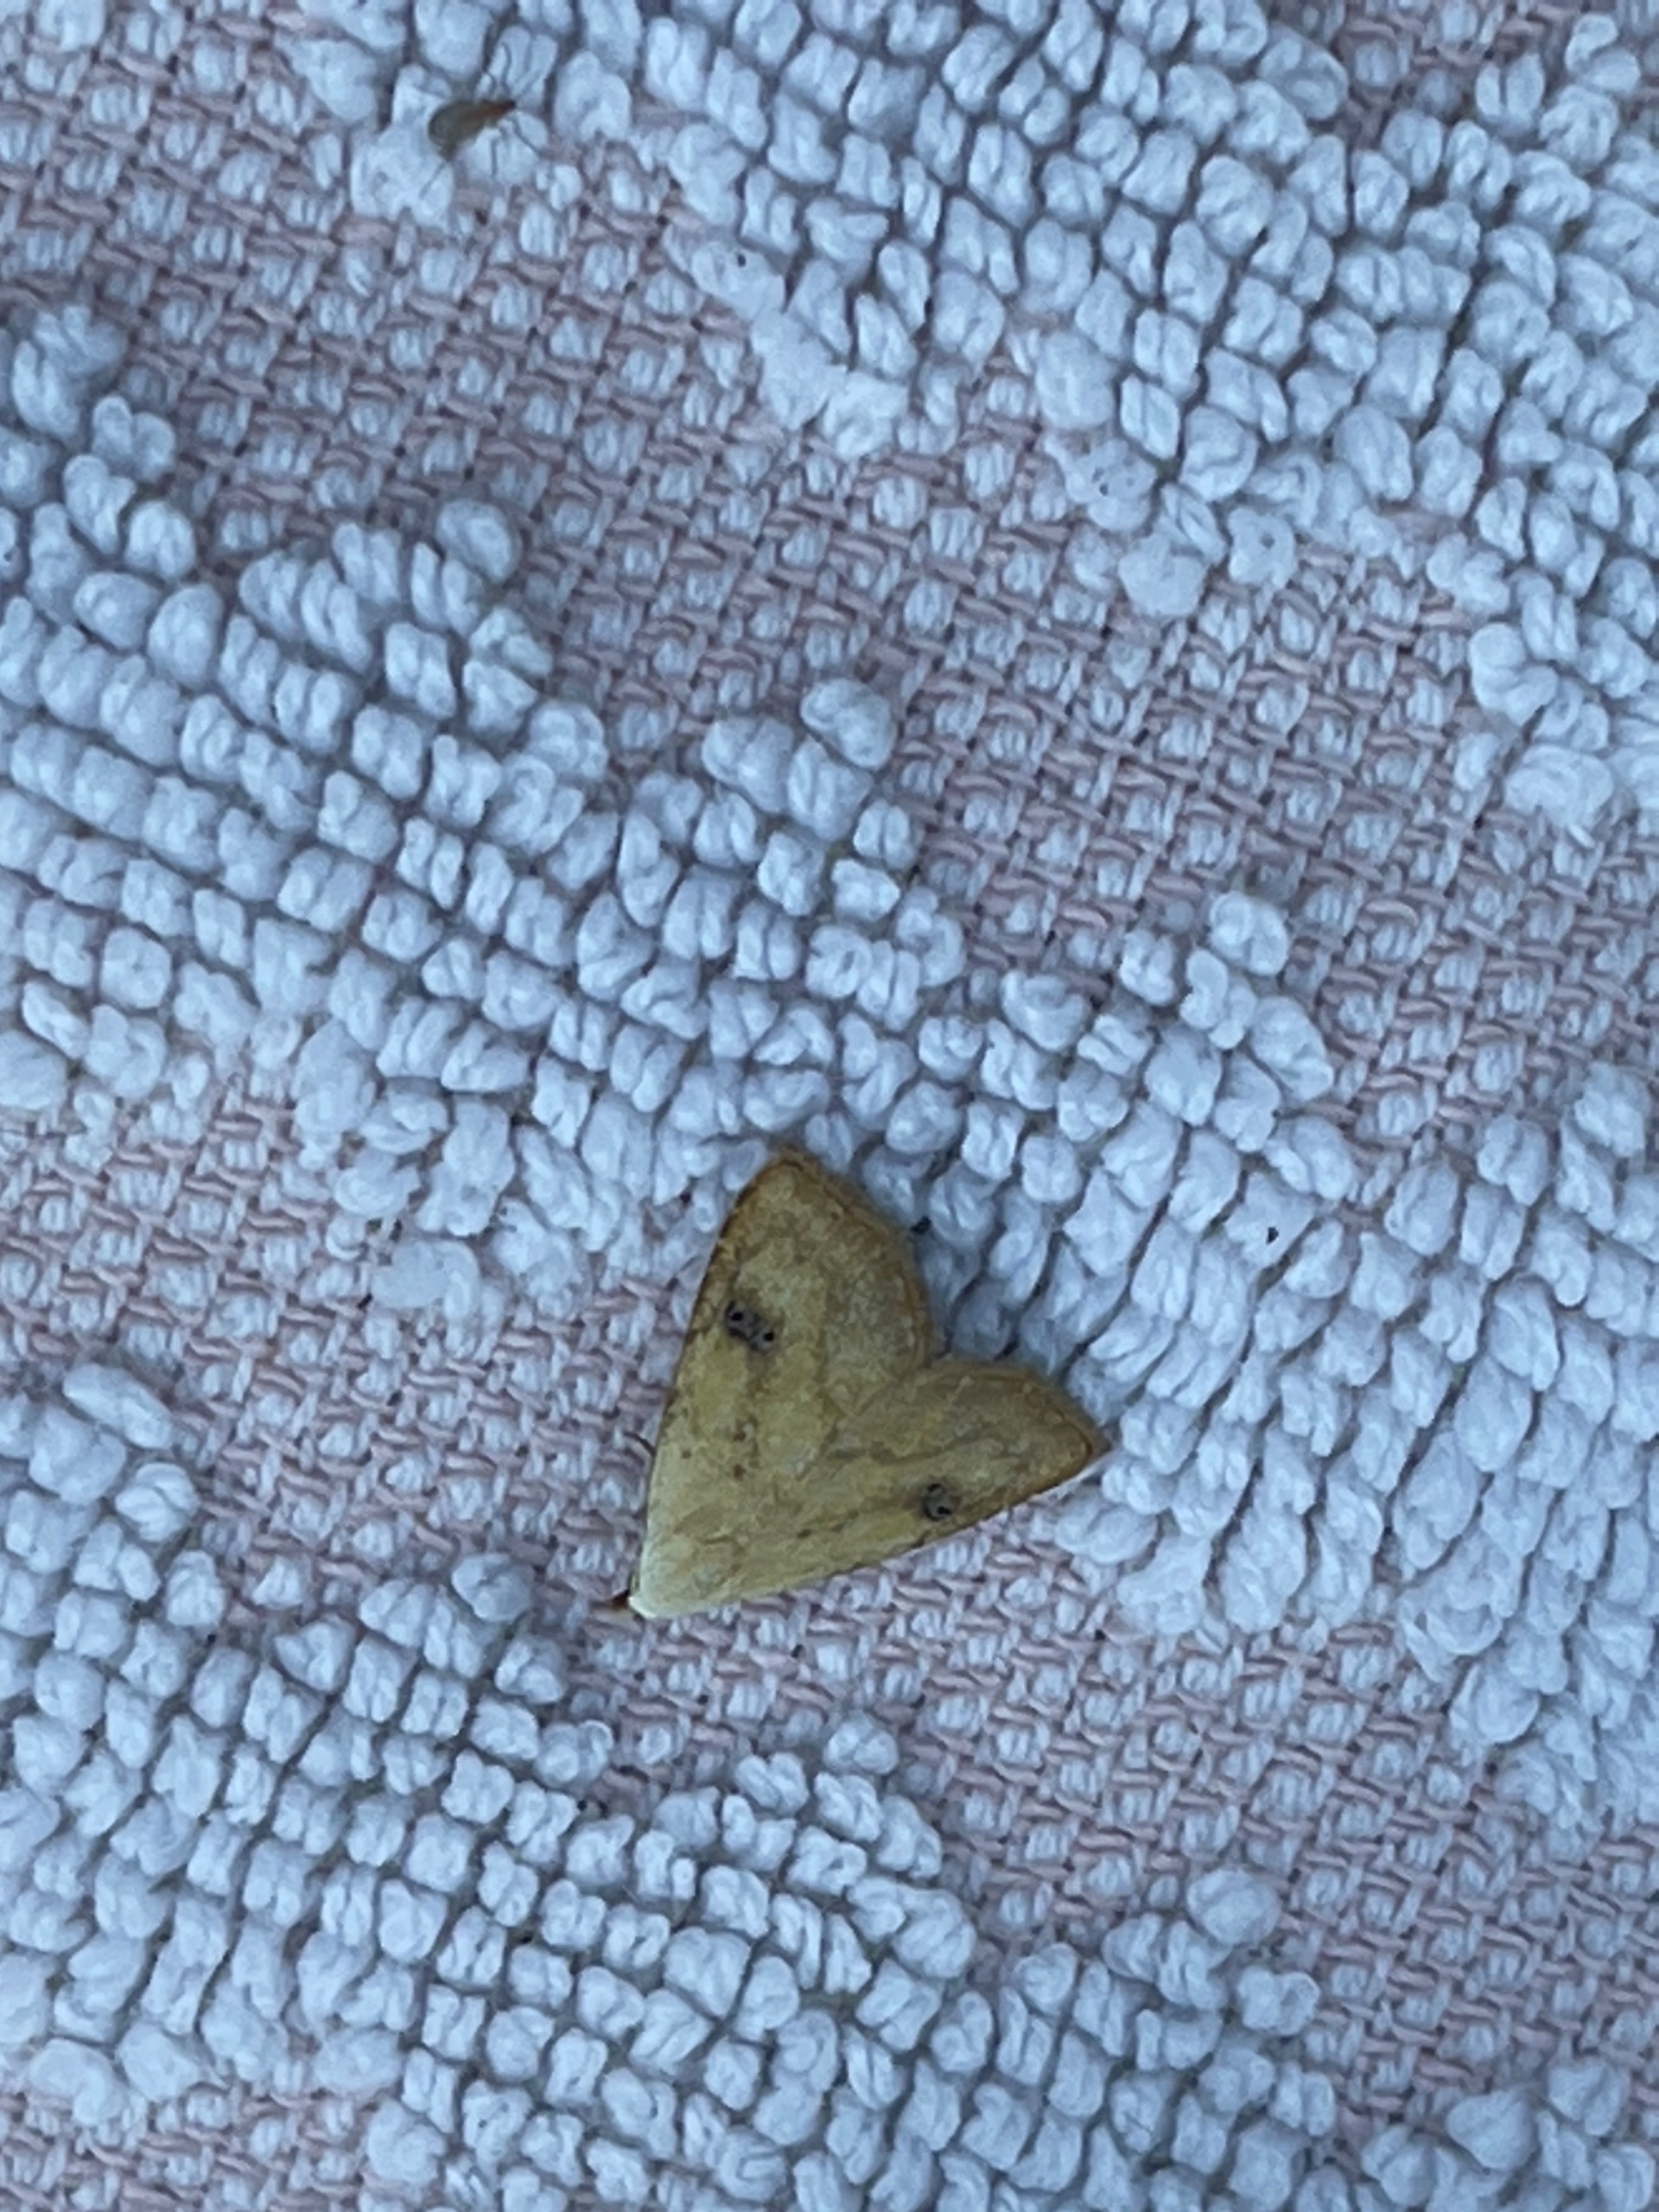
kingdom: Animalia
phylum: Arthropoda
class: Insecta
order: Lepidoptera
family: Erebidae
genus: Rivula
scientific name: Rivula sericealis
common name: Lille å-ugle
